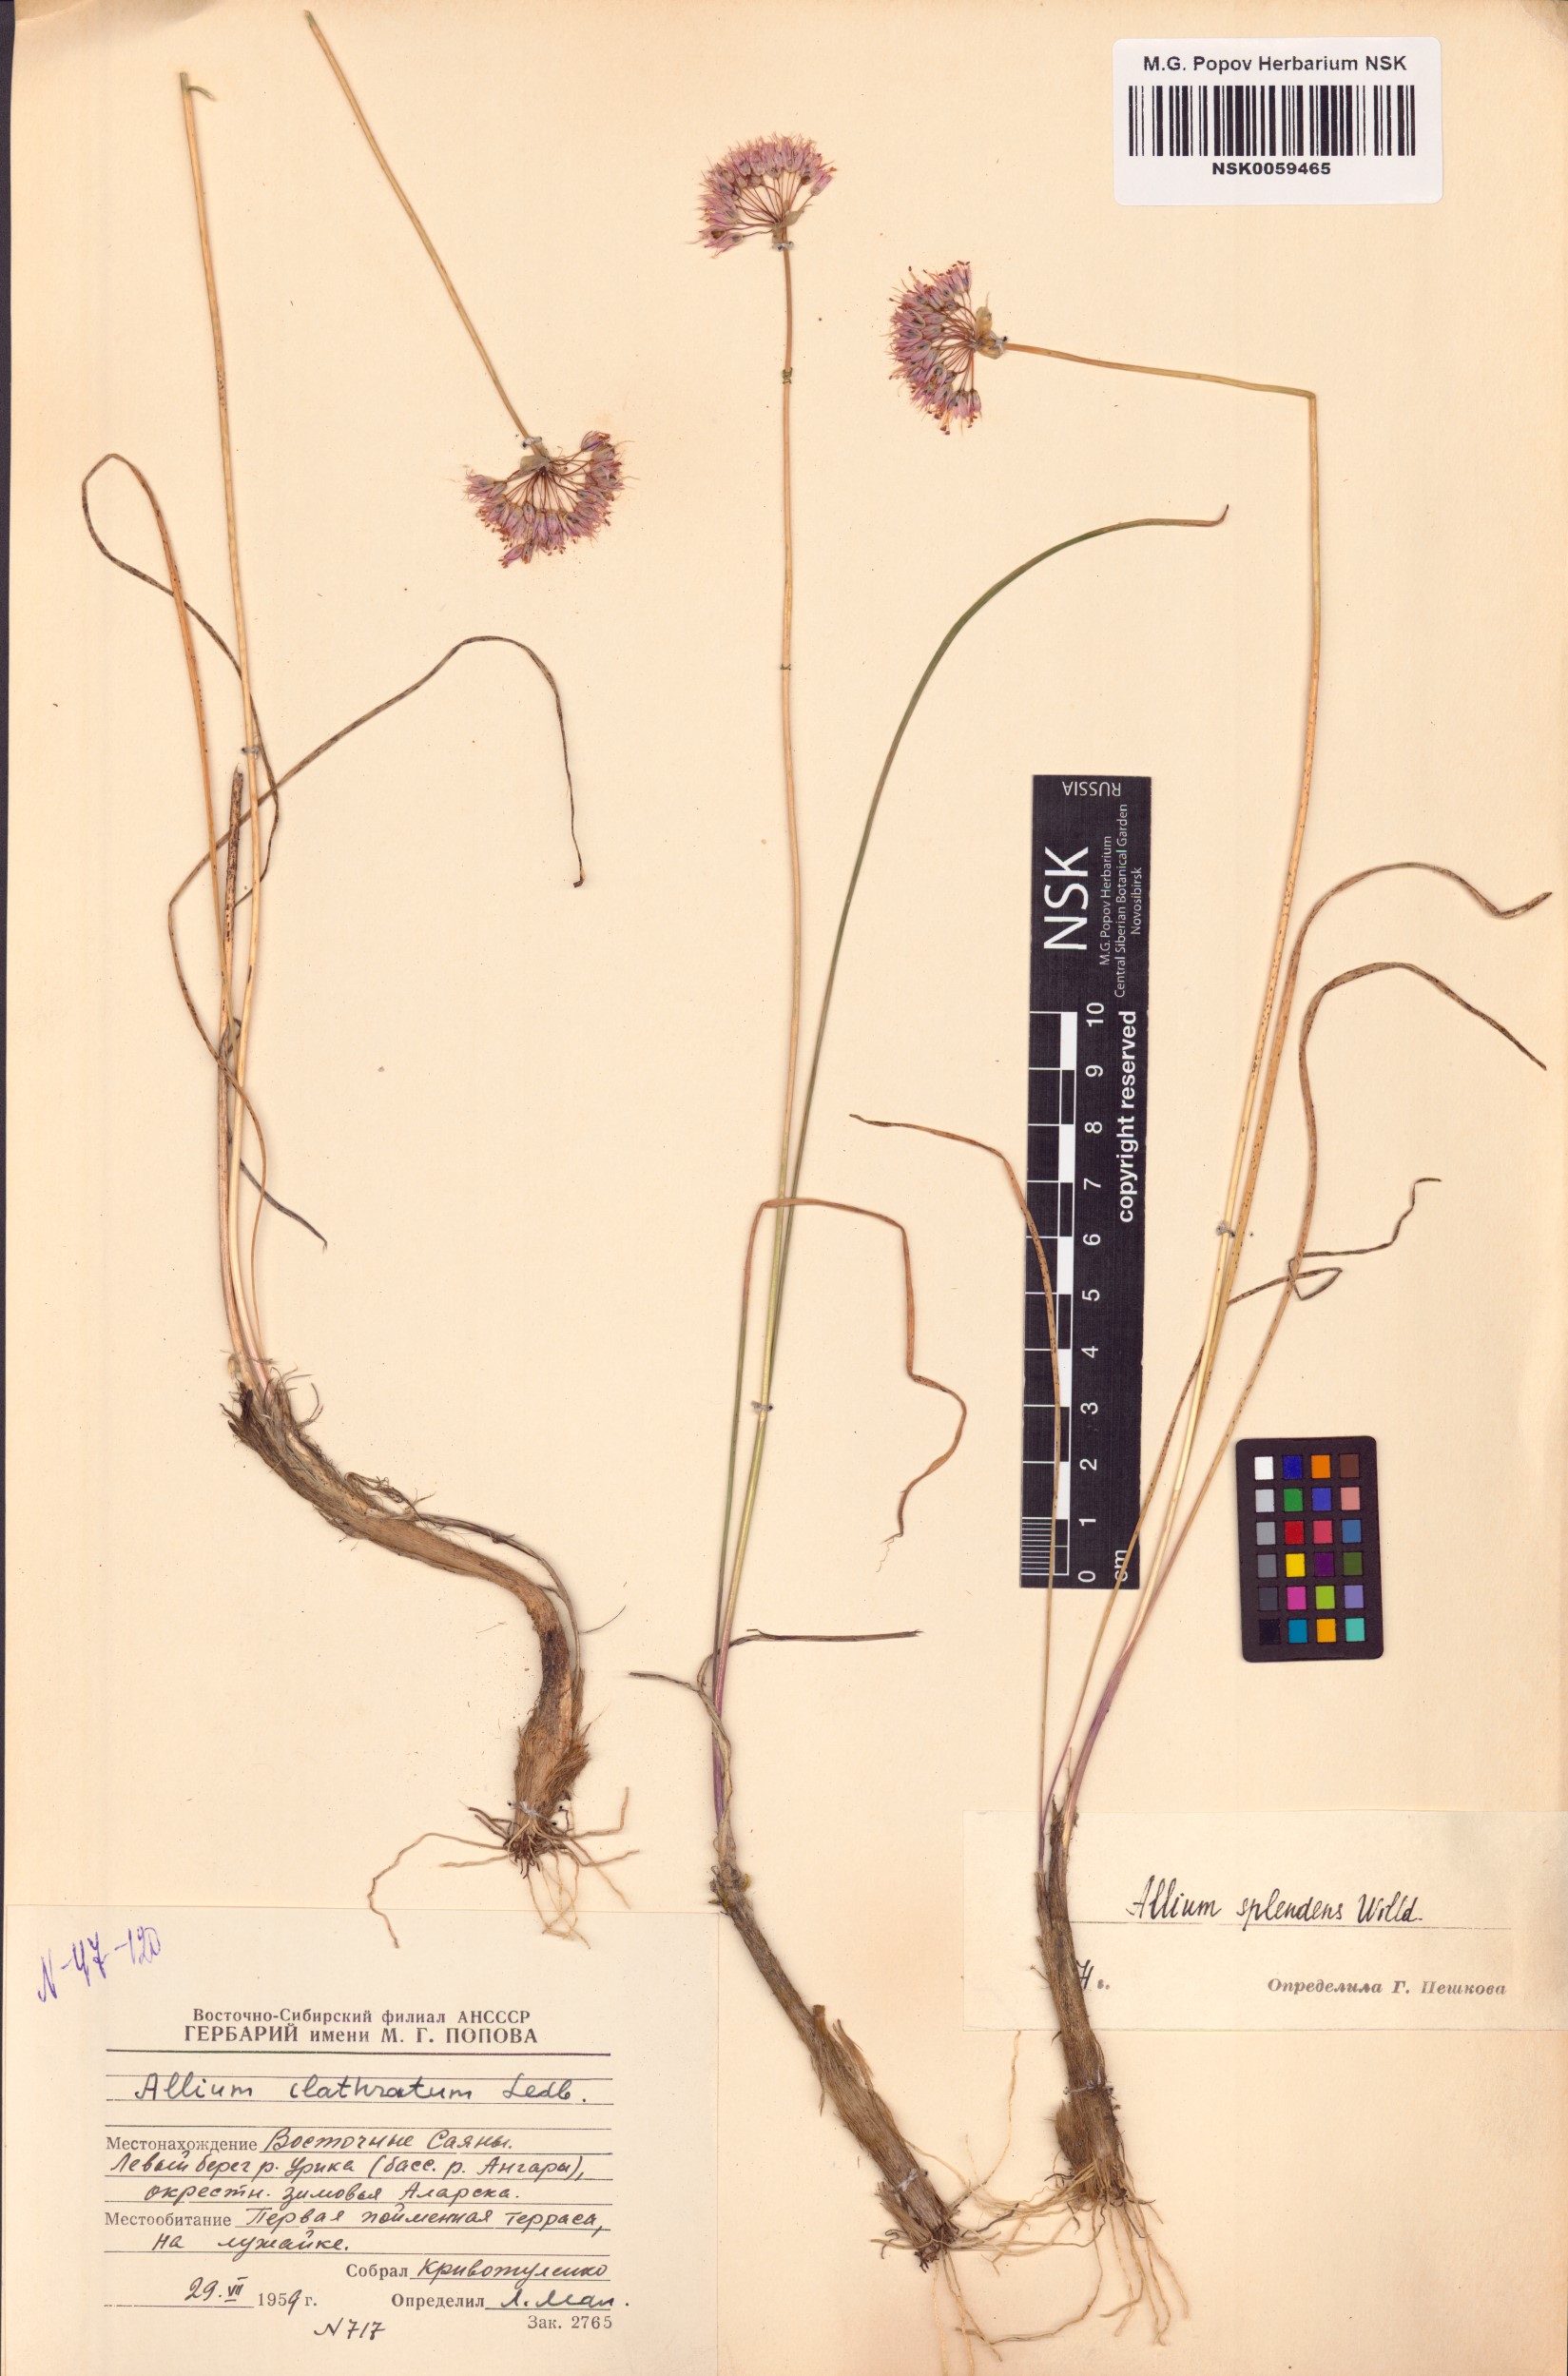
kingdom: Plantae
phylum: Tracheophyta
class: Liliopsida
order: Asparagales
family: Amaryllidaceae
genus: Allium
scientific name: Allium splendens
